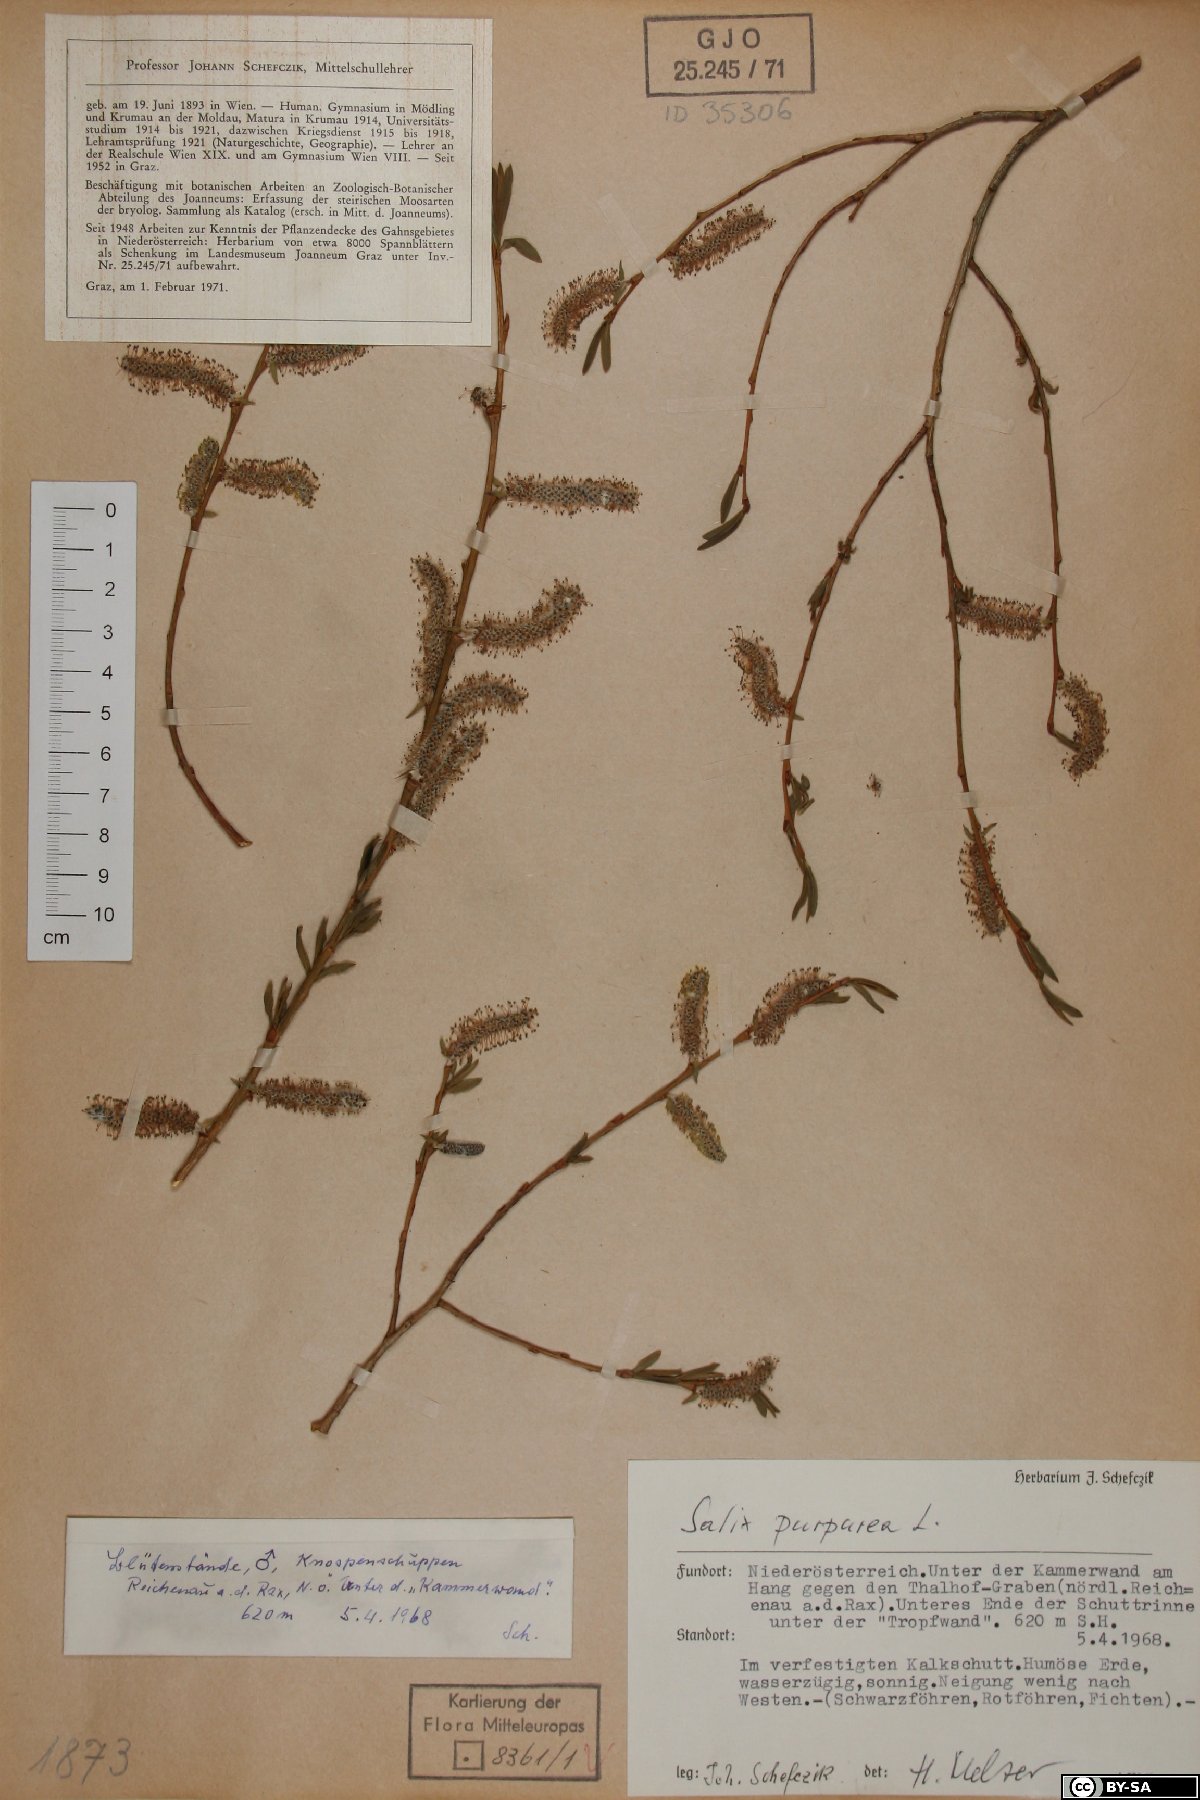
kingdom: Plantae
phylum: Tracheophyta
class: Magnoliopsida
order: Malpighiales
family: Salicaceae
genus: Salix
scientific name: Salix purpurea
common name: Purple willow
